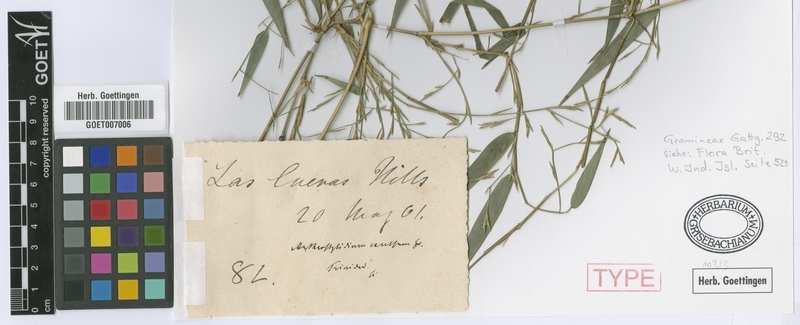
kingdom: Plantae
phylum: Tracheophyta
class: Liliopsida
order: Poales
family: Poaceae
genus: Arthrostylidium
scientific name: Arthrostylidium excelsum
